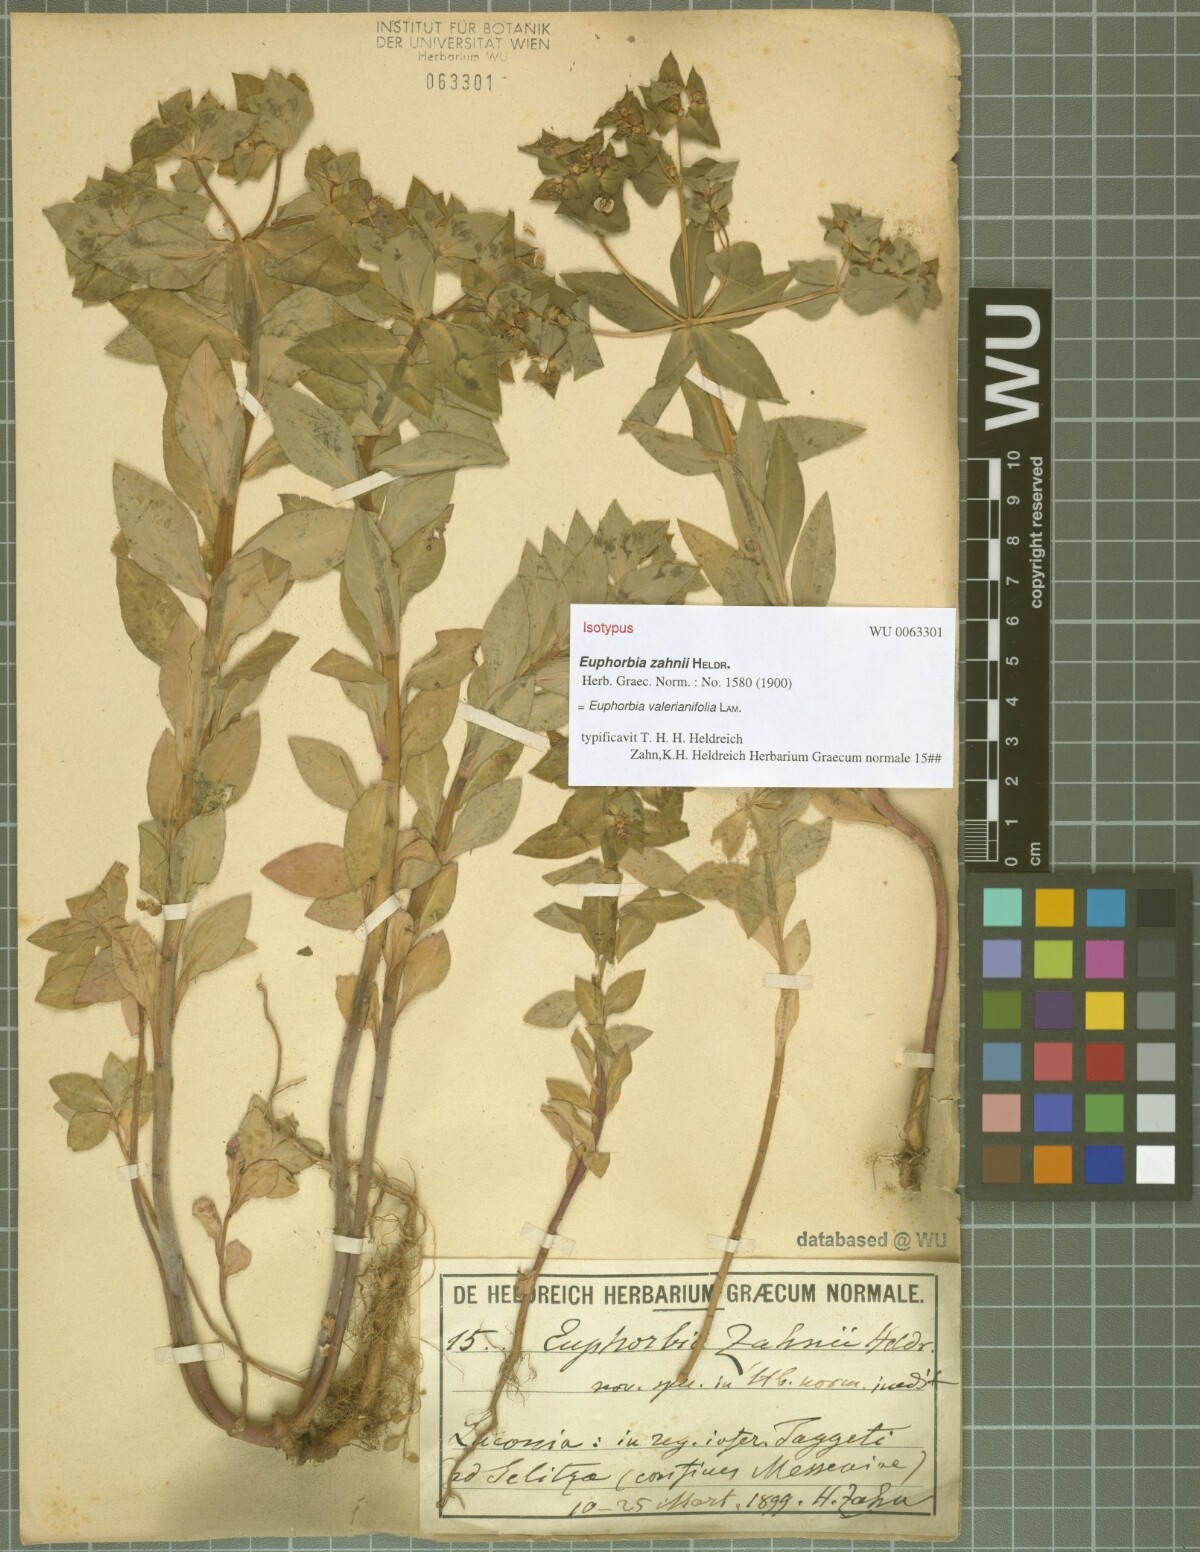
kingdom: Plantae
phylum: Tracheophyta
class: Magnoliopsida
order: Malpighiales
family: Euphorbiaceae
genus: Euphorbia
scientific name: Euphorbia valerianifolia
